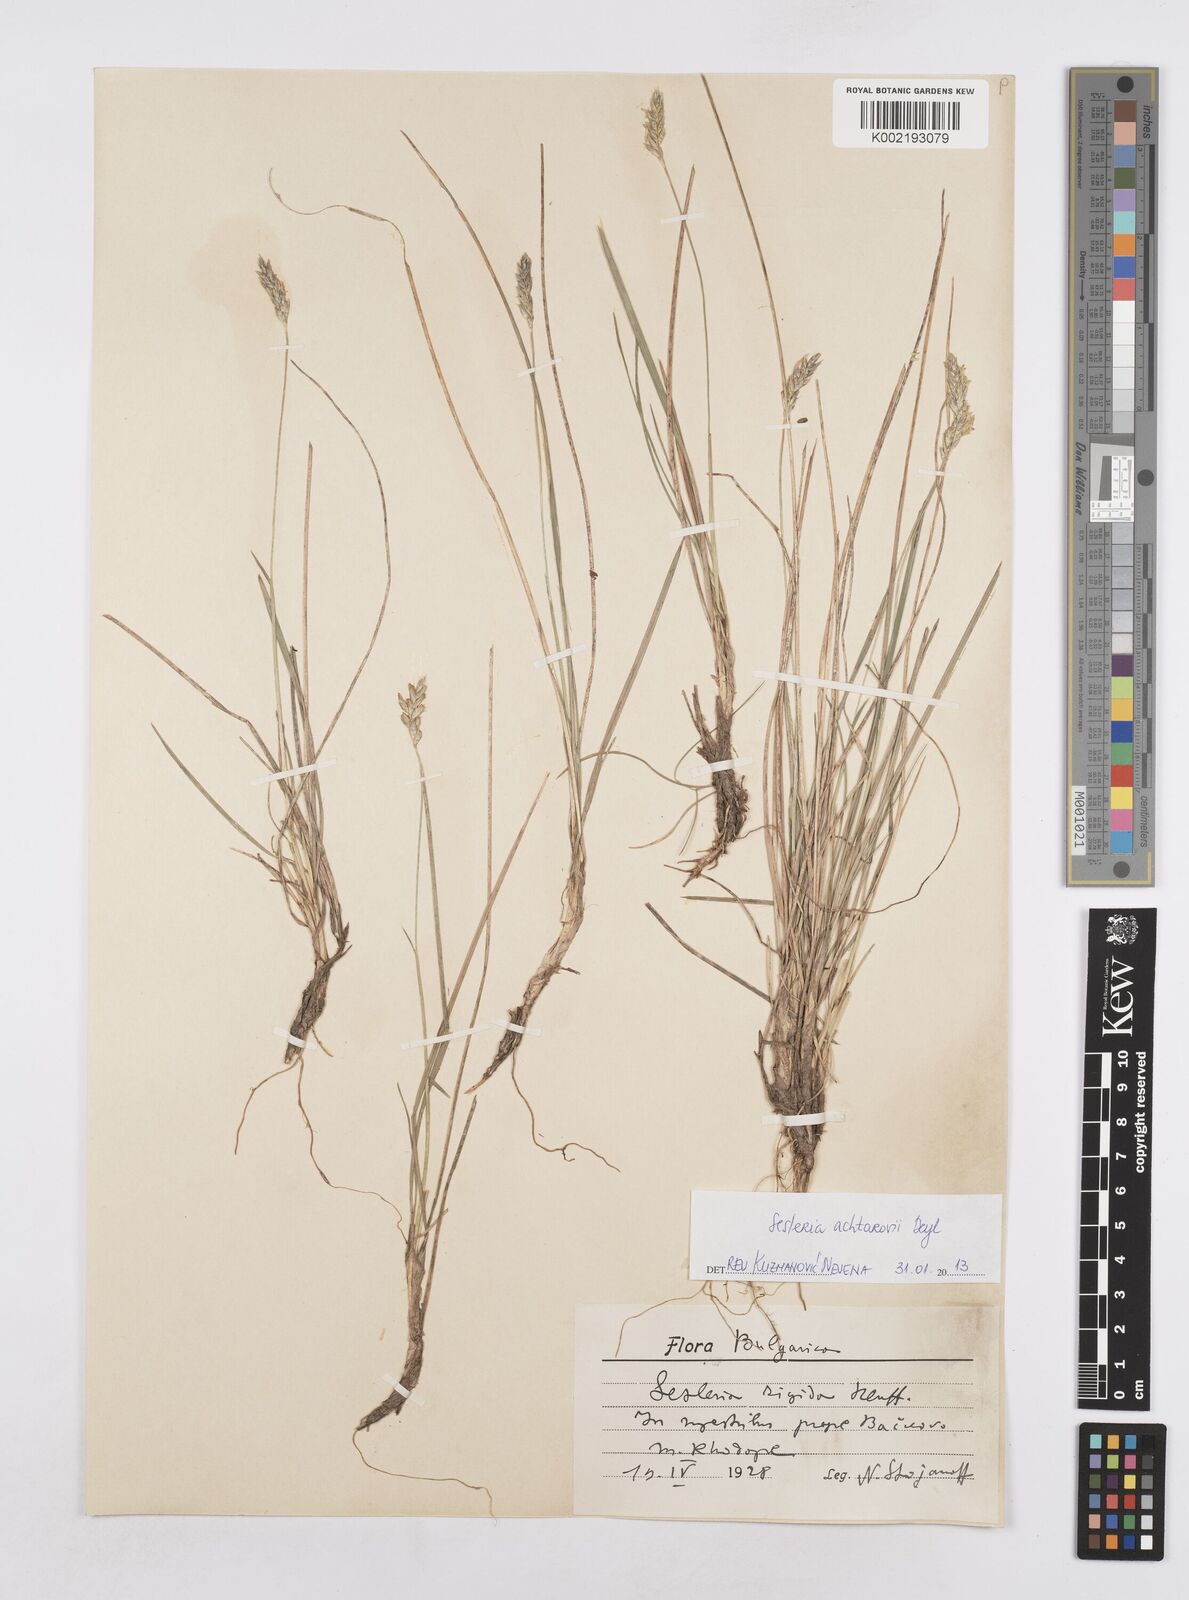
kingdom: Plantae
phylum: Tracheophyta
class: Liliopsida
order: Poales
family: Poaceae
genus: Sesleria
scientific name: Sesleria achtarovii
